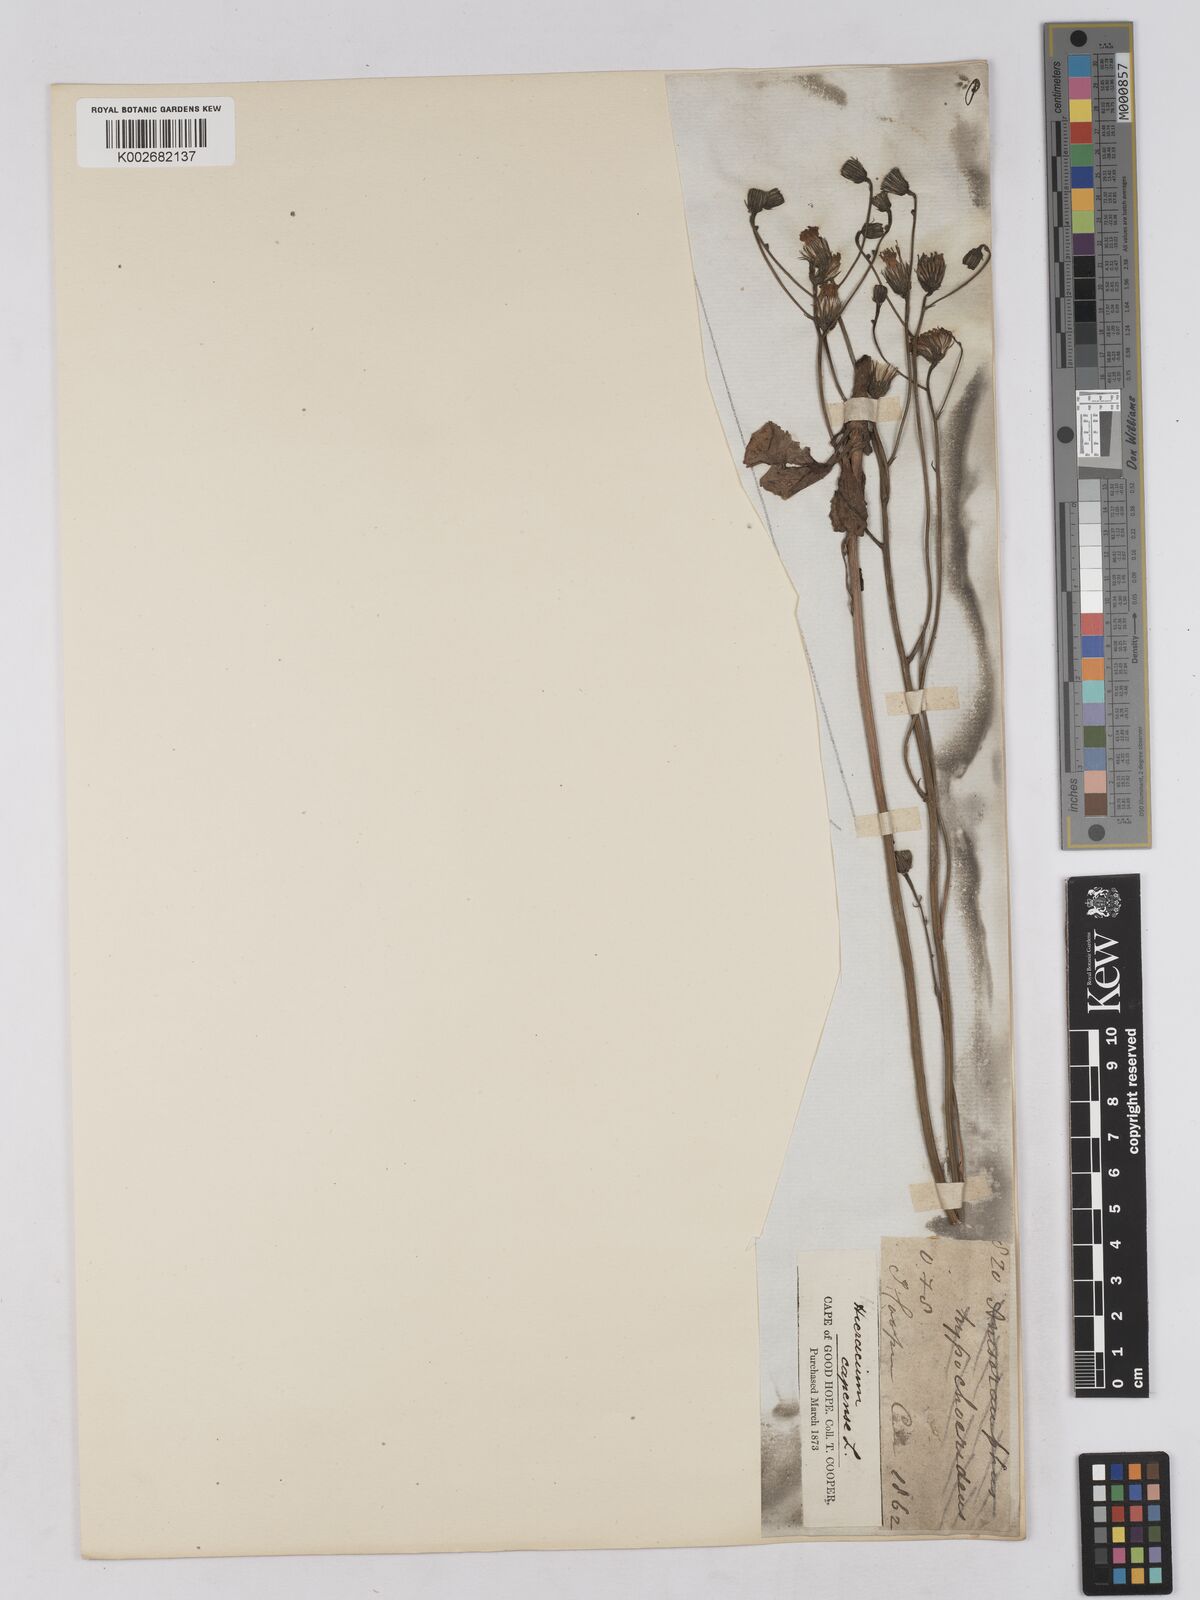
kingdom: Plantae
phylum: Tracheophyta
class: Magnoliopsida
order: Asterales
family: Asteraceae
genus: Tolpis
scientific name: Tolpis capensis
